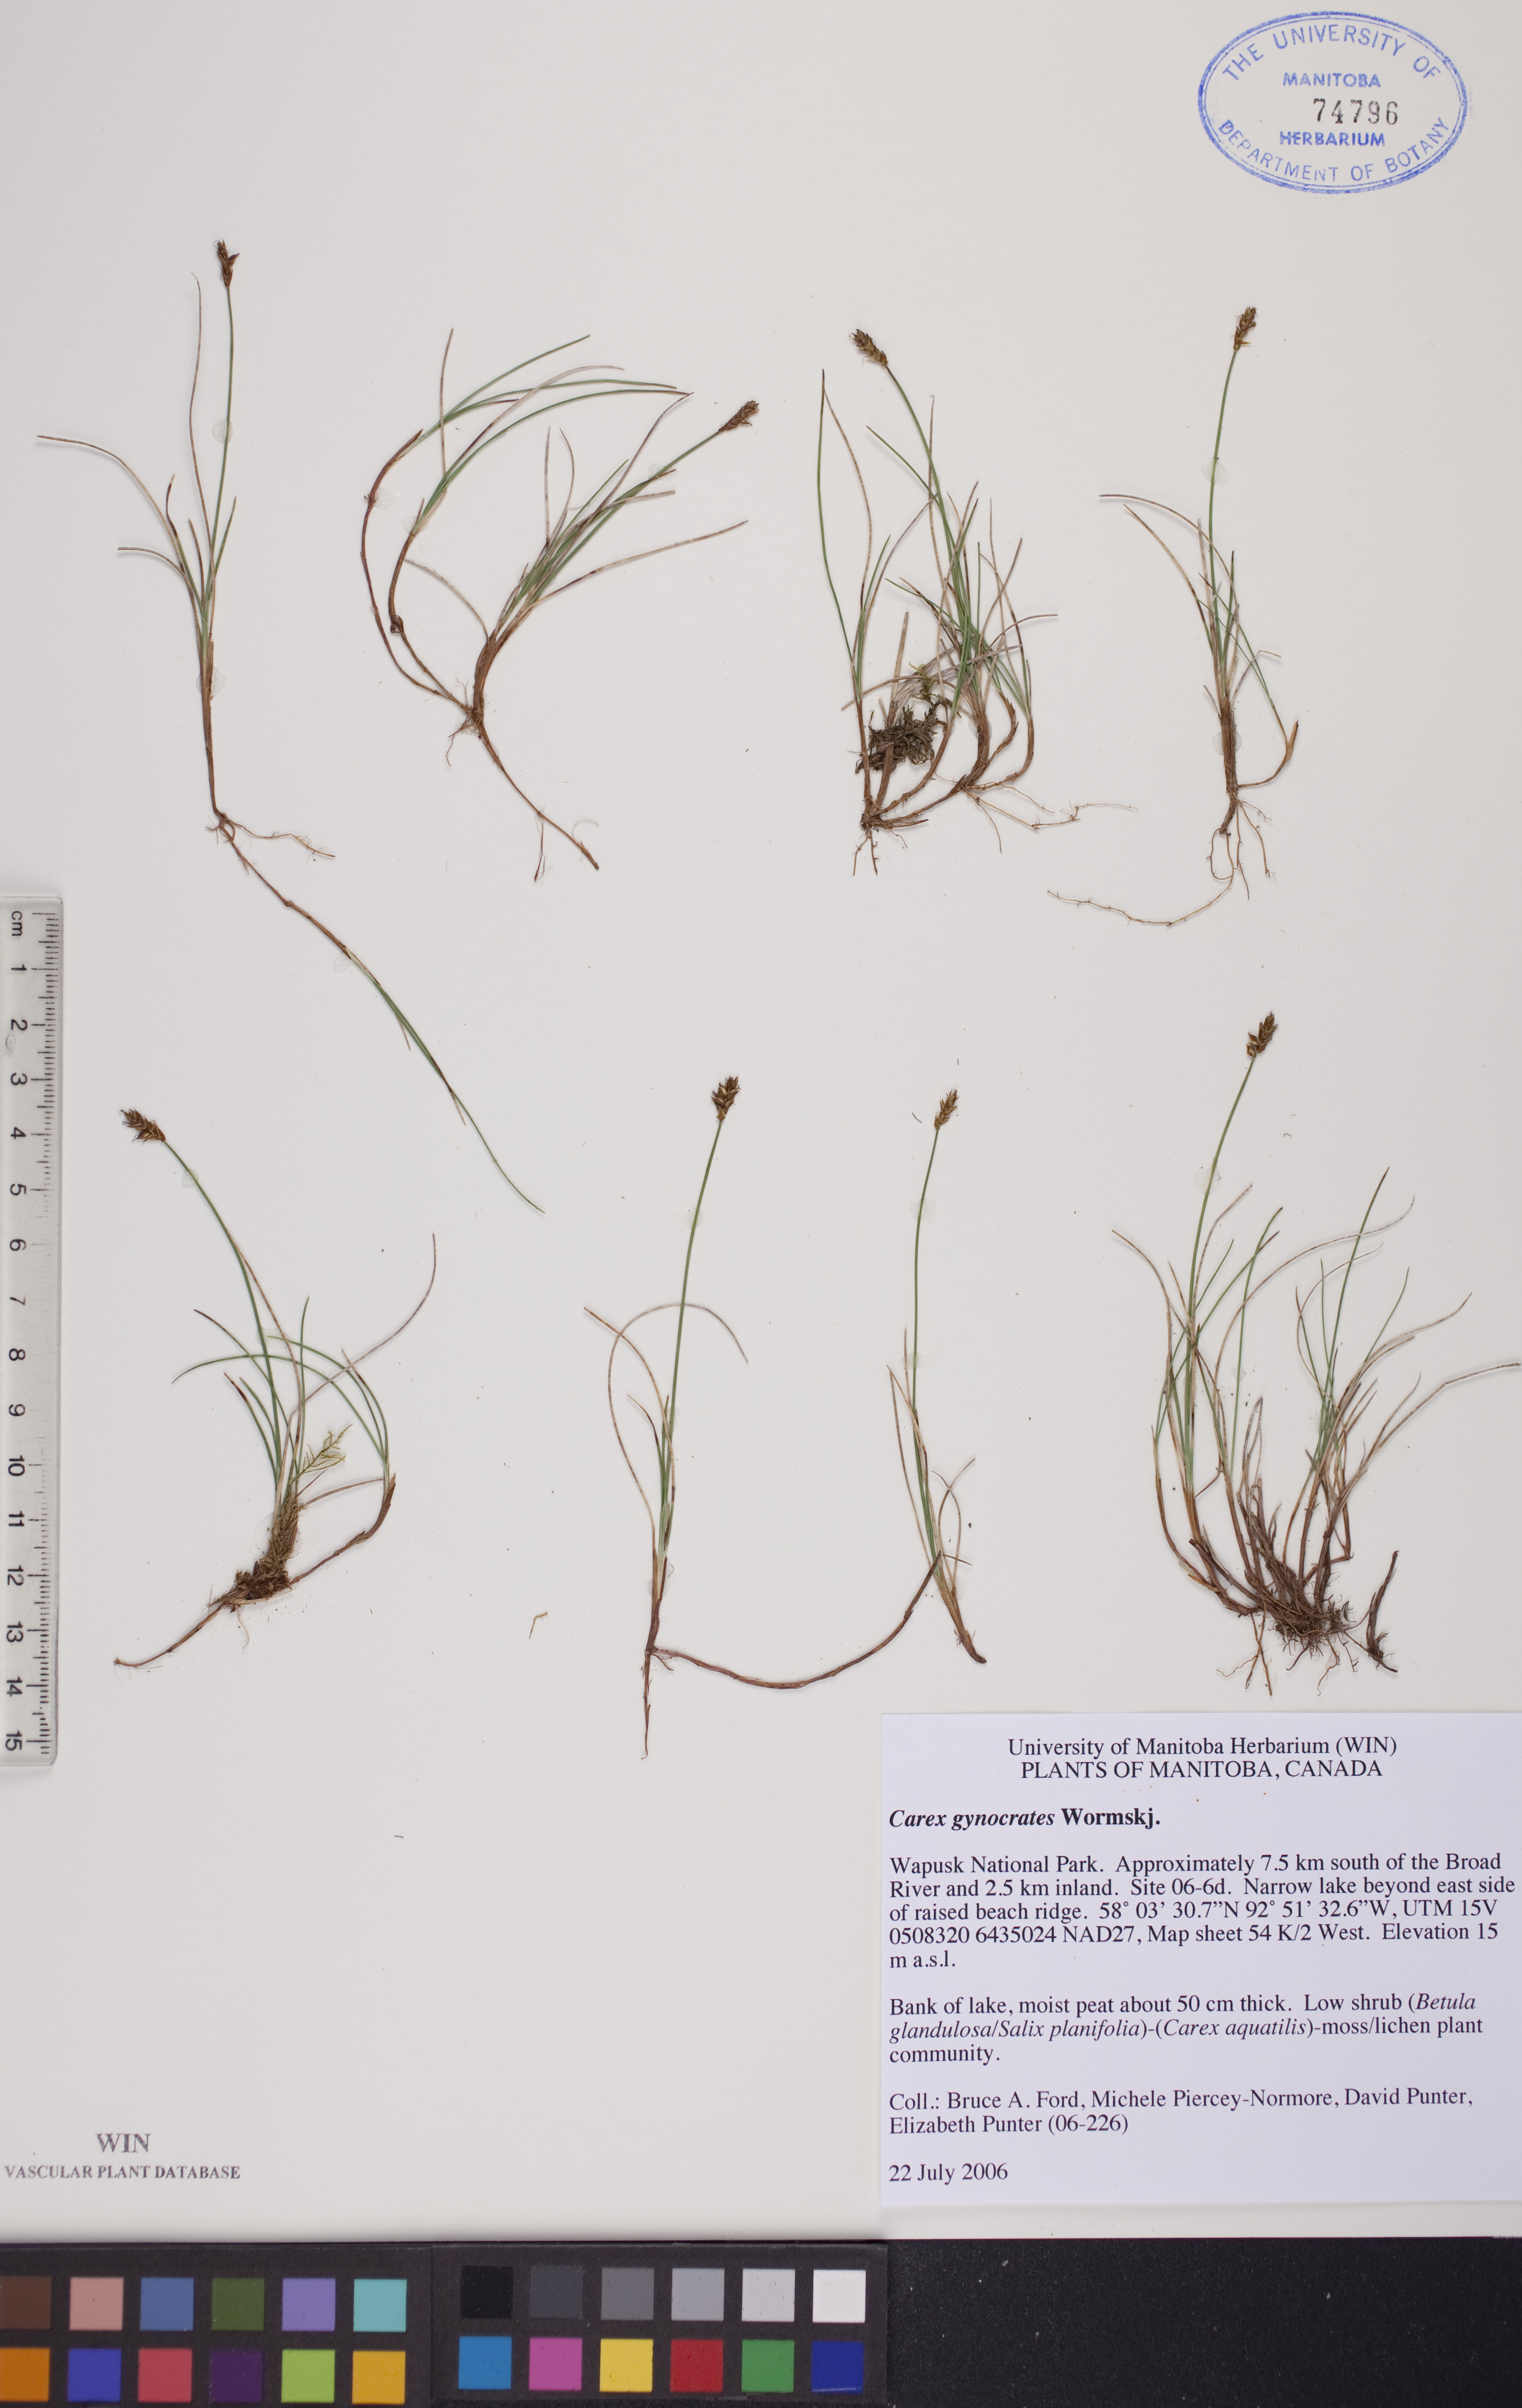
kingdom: Plantae
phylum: Tracheophyta
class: Liliopsida
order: Poales
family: Cyperaceae
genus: Carex
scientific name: Carex nardina
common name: Nard sedge
